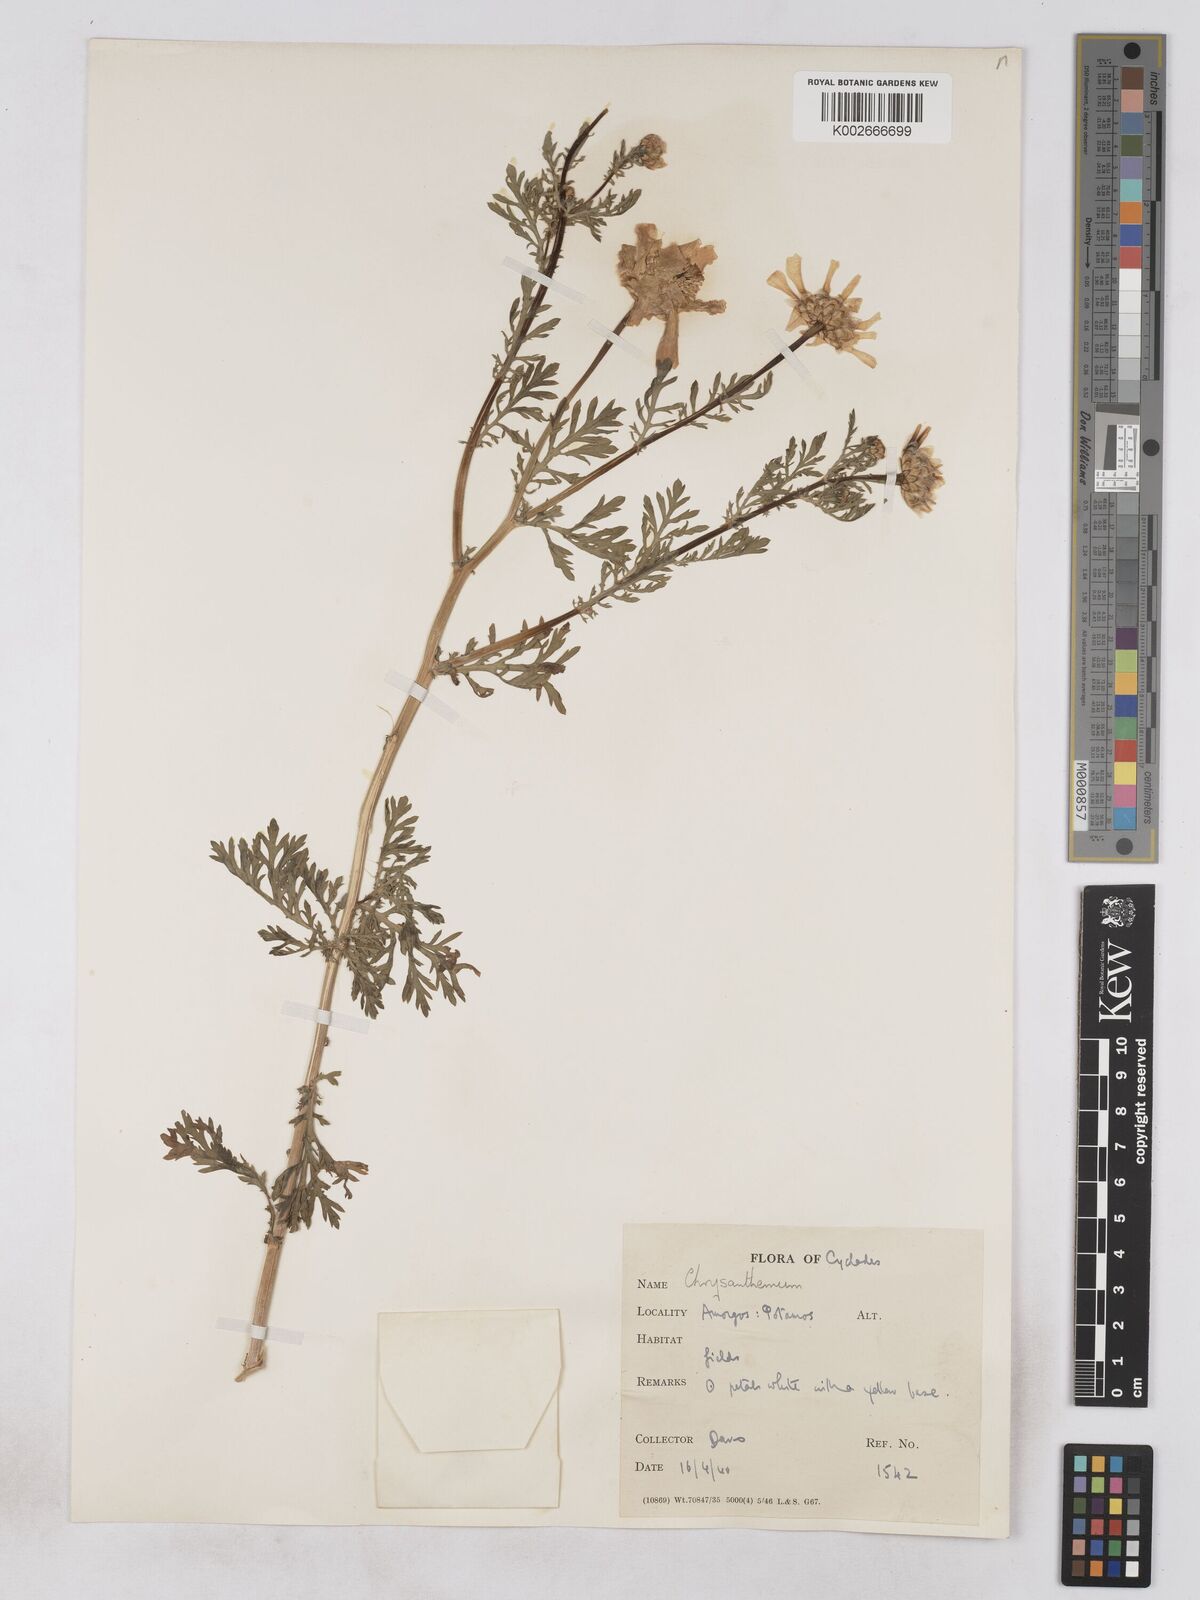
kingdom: Plantae
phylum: Tracheophyta
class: Magnoliopsida
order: Asterales
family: Asteraceae
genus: Glebionis
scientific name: Glebionis coronaria
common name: Crowndaisy
